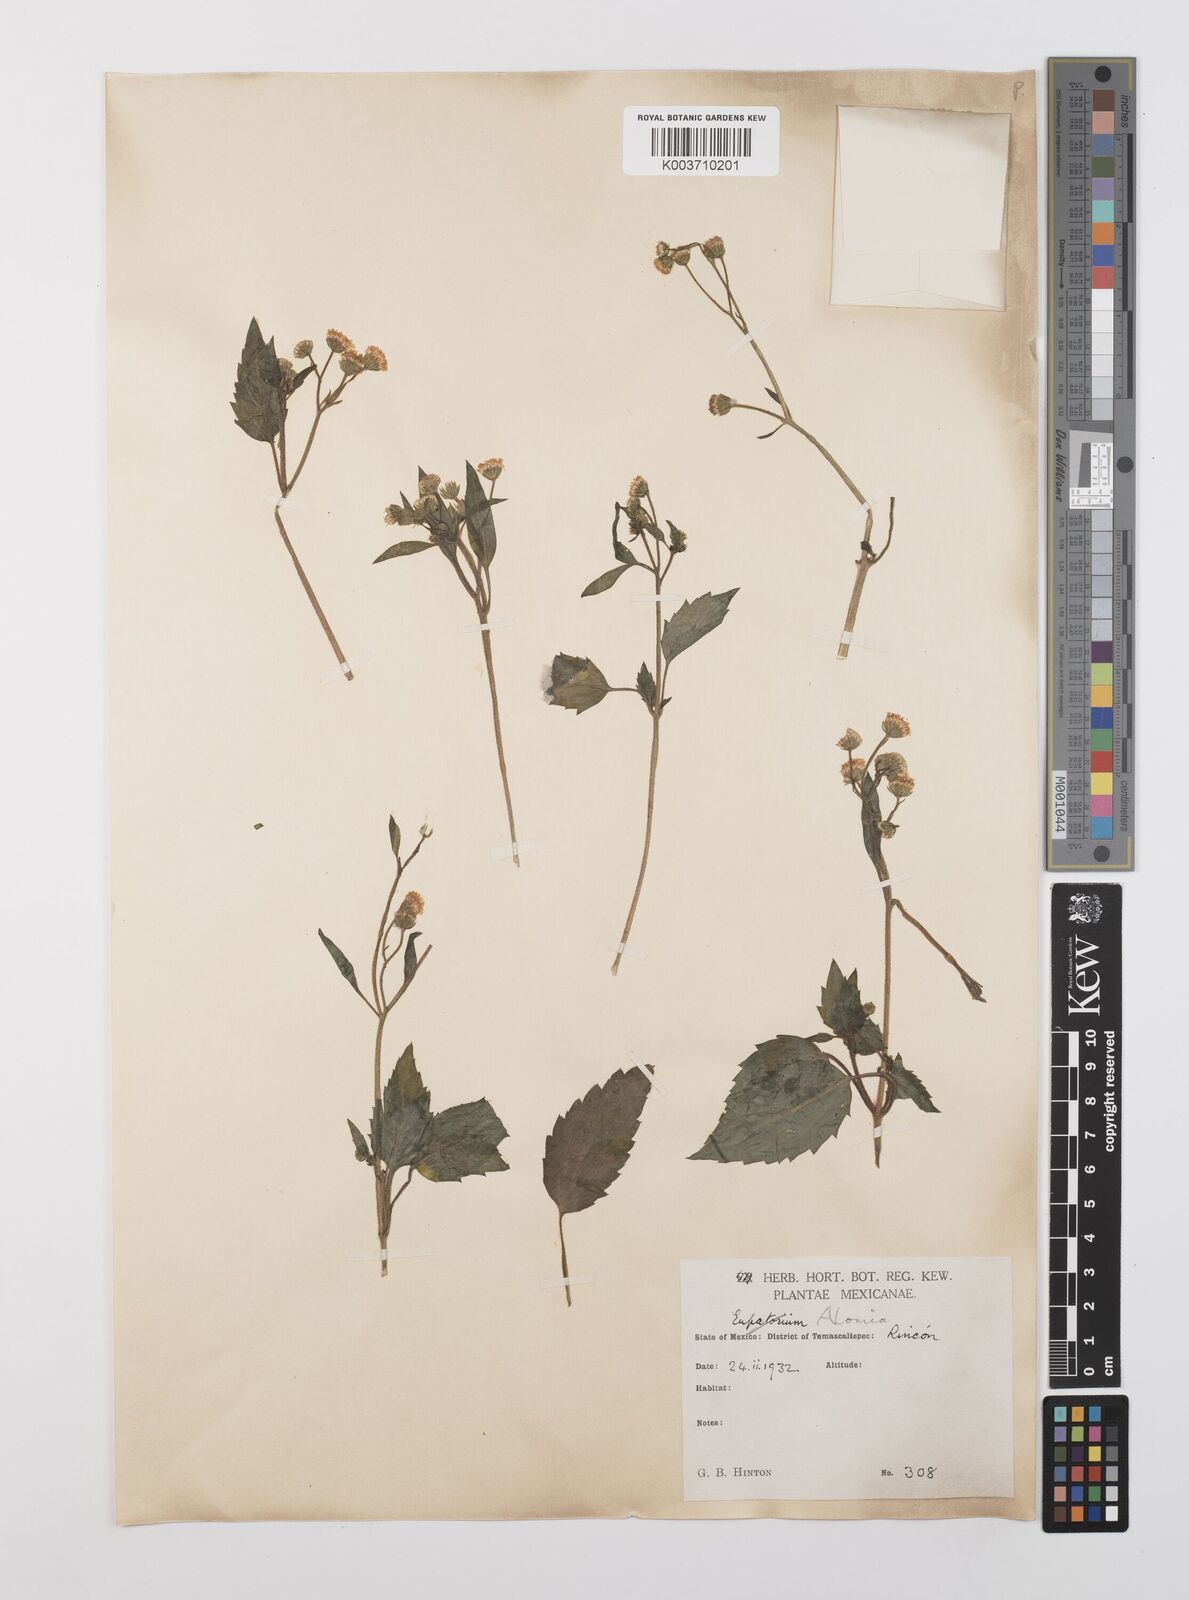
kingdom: Plantae
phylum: Tracheophyta
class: Magnoliopsida
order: Asterales
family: Asteraceae
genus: Alomia
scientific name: Alomia
